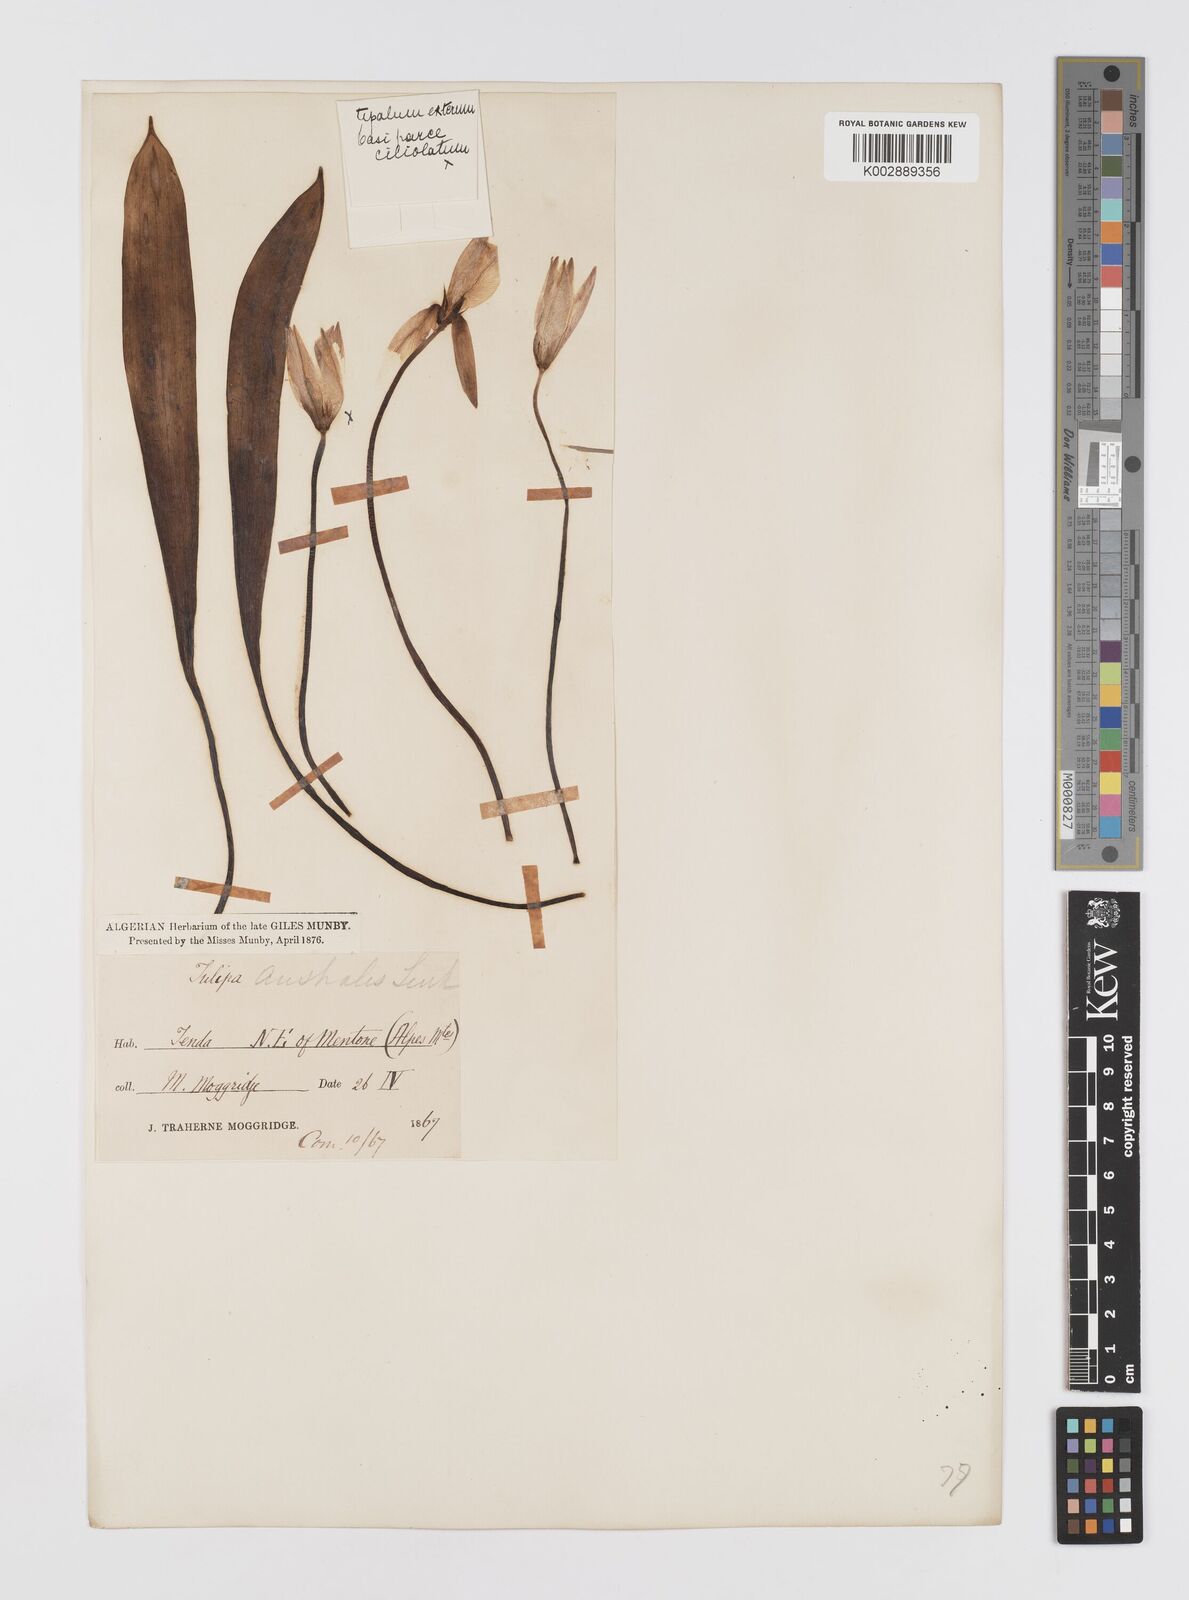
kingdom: Plantae
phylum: Tracheophyta
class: Liliopsida
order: Liliales
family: Liliaceae
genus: Tulipa
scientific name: Tulipa sylvestris
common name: Wild tulip
